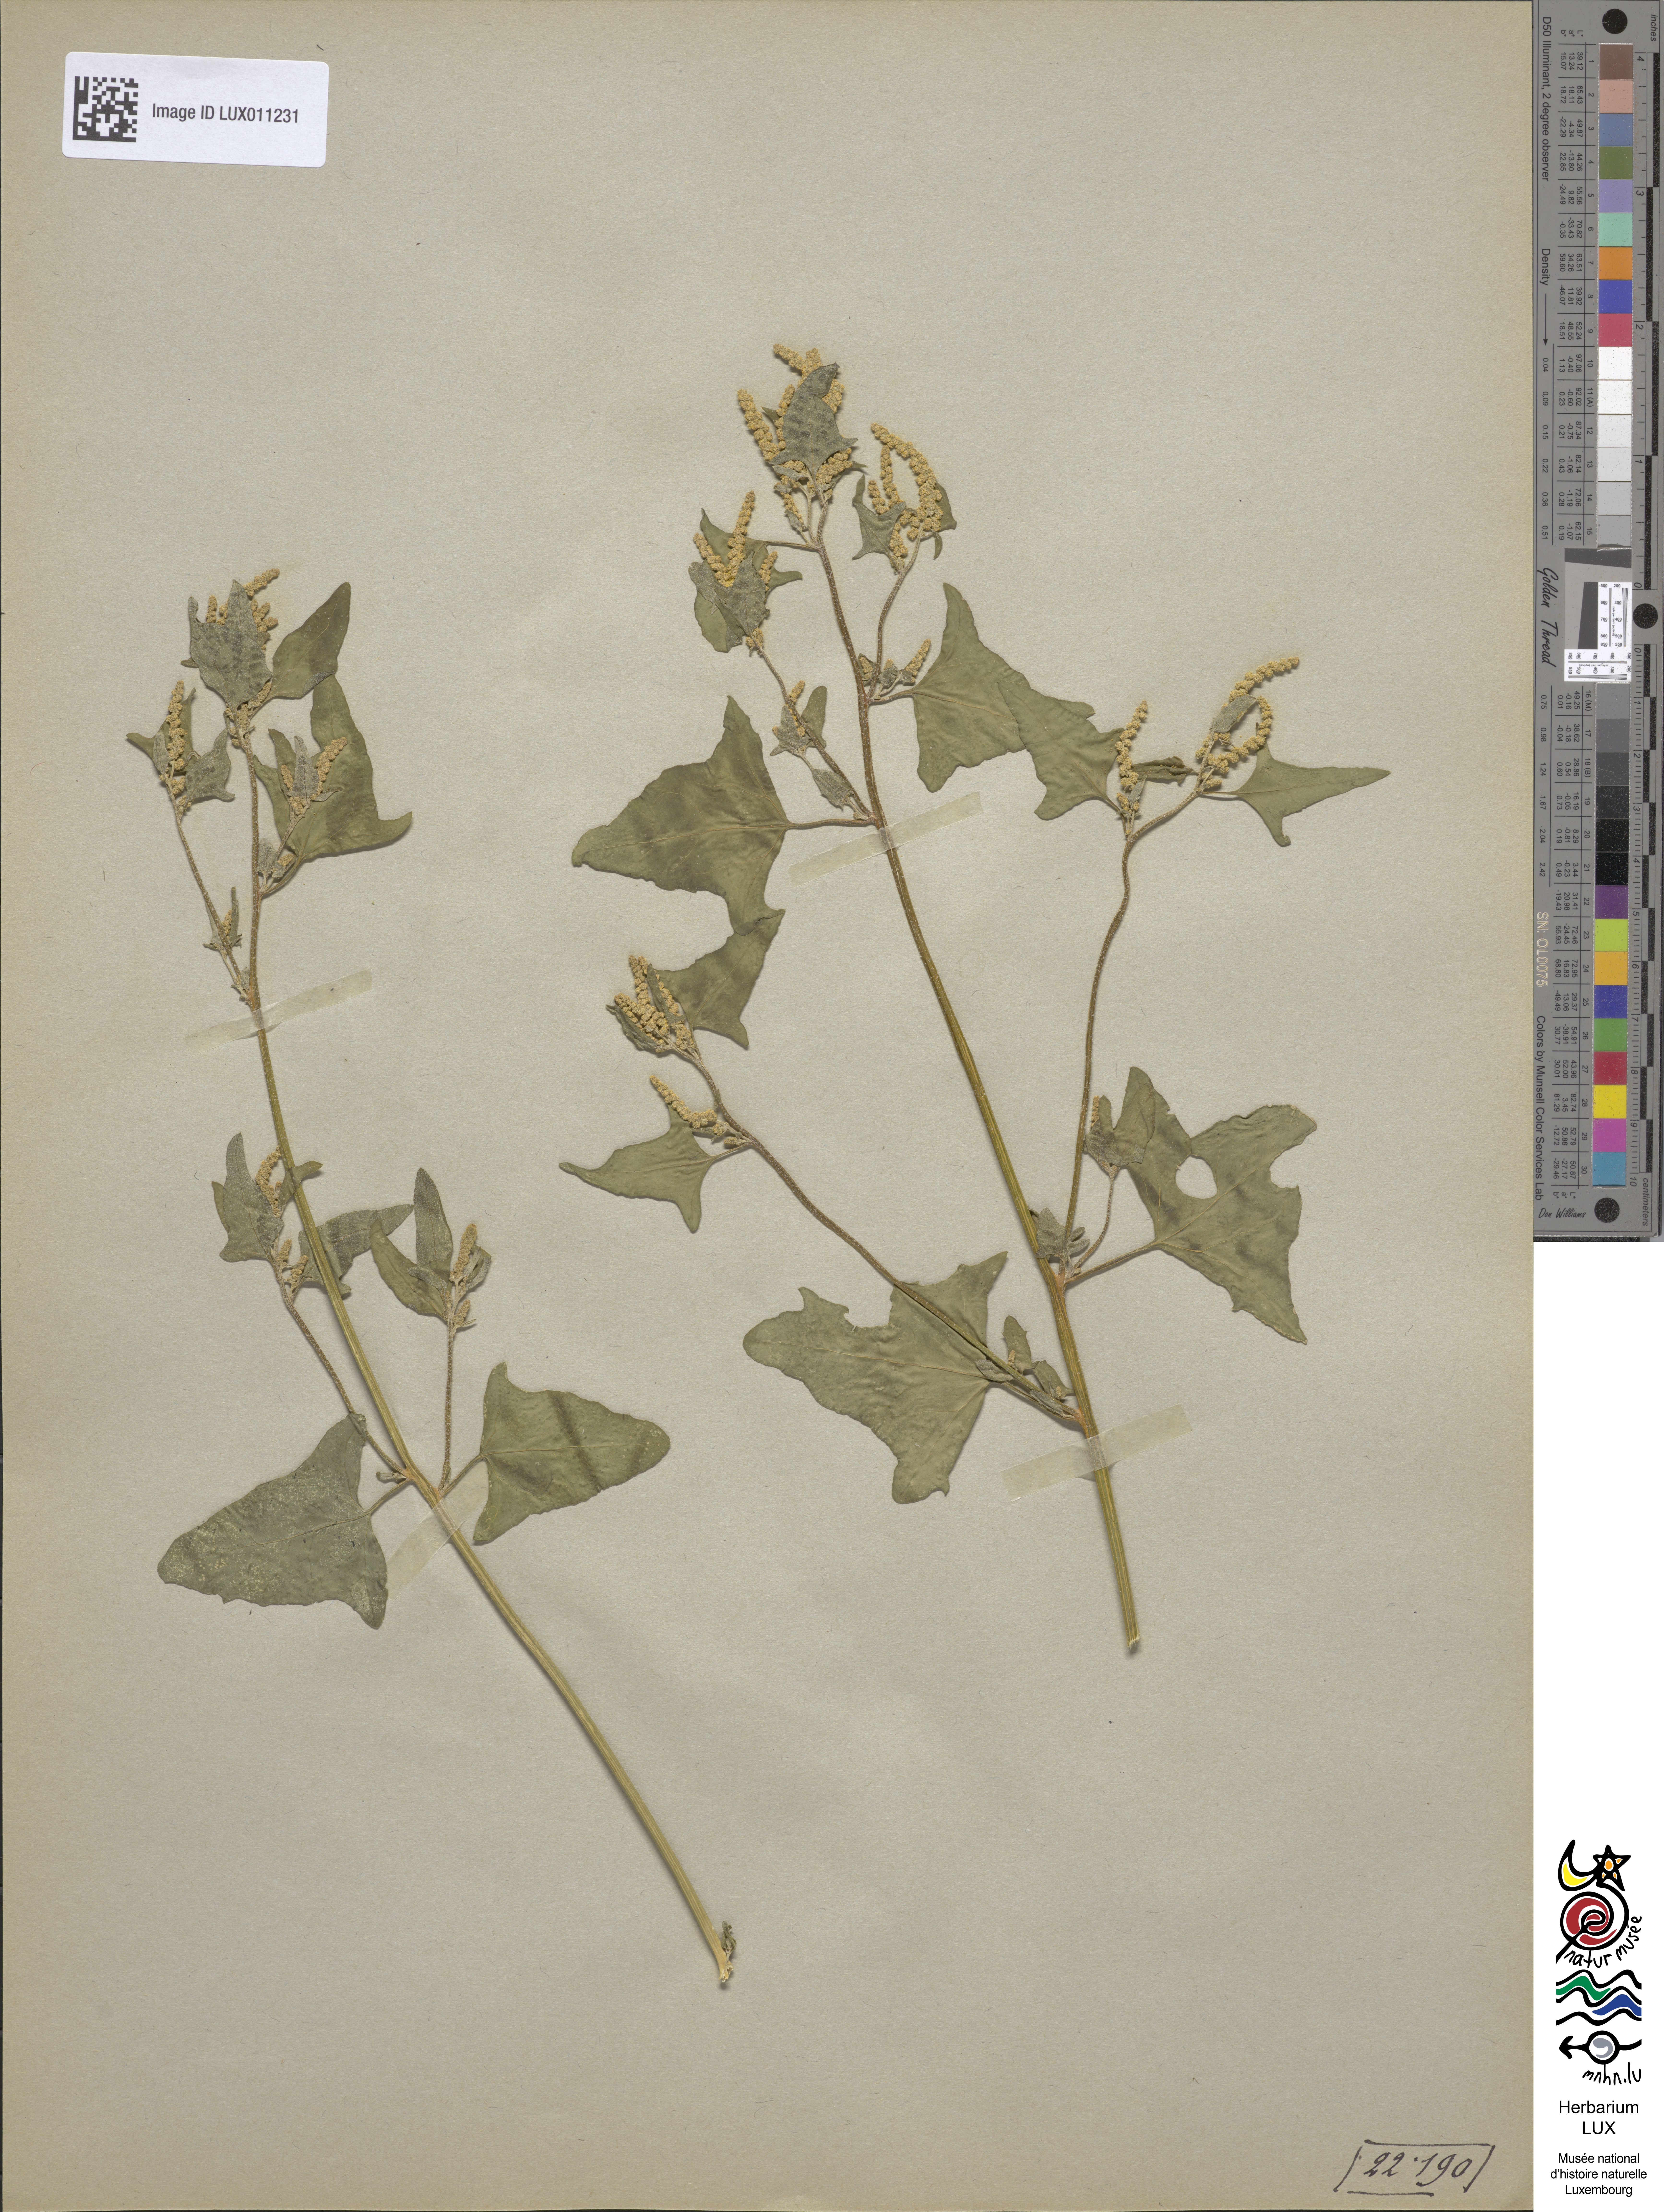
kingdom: Plantae
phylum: Tracheophyta
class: Magnoliopsida
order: Caryophyllales
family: Amaranthaceae
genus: Atriplex
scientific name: Atriplex calotheca
